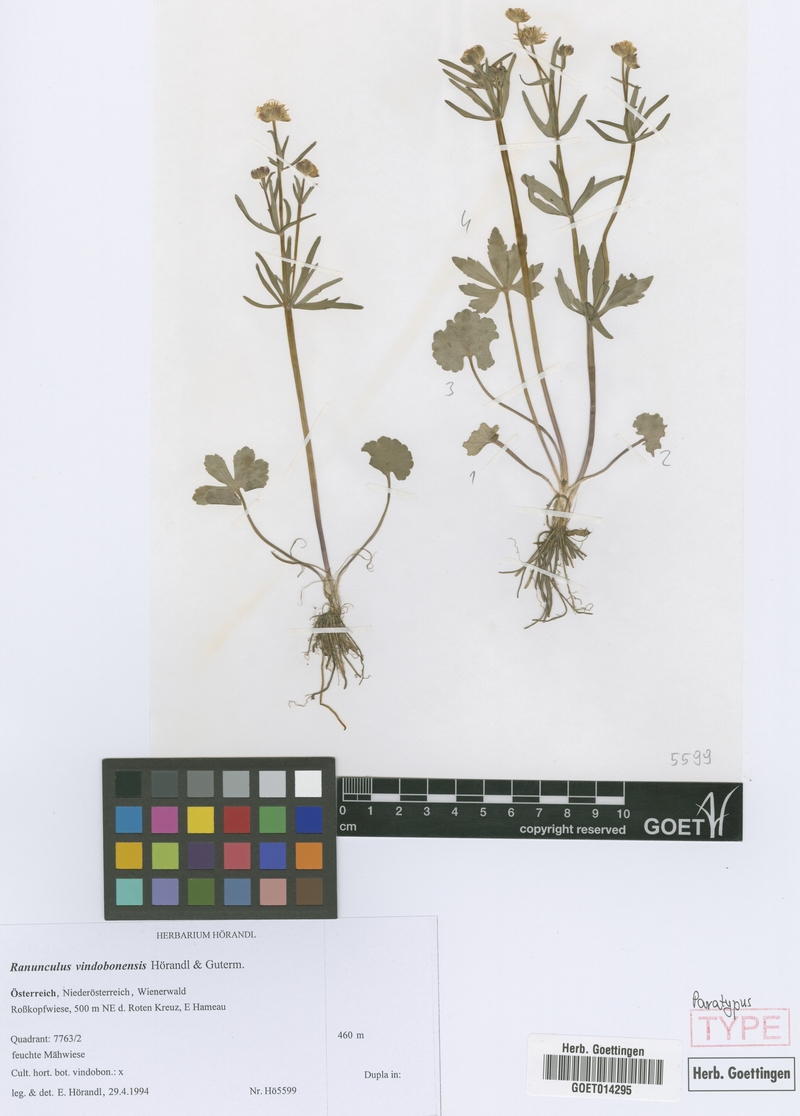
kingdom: Plantae
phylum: Tracheophyta
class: Magnoliopsida
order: Ranunculales
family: Ranunculaceae
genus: Ranunculus
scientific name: Ranunculus vindobonensis
